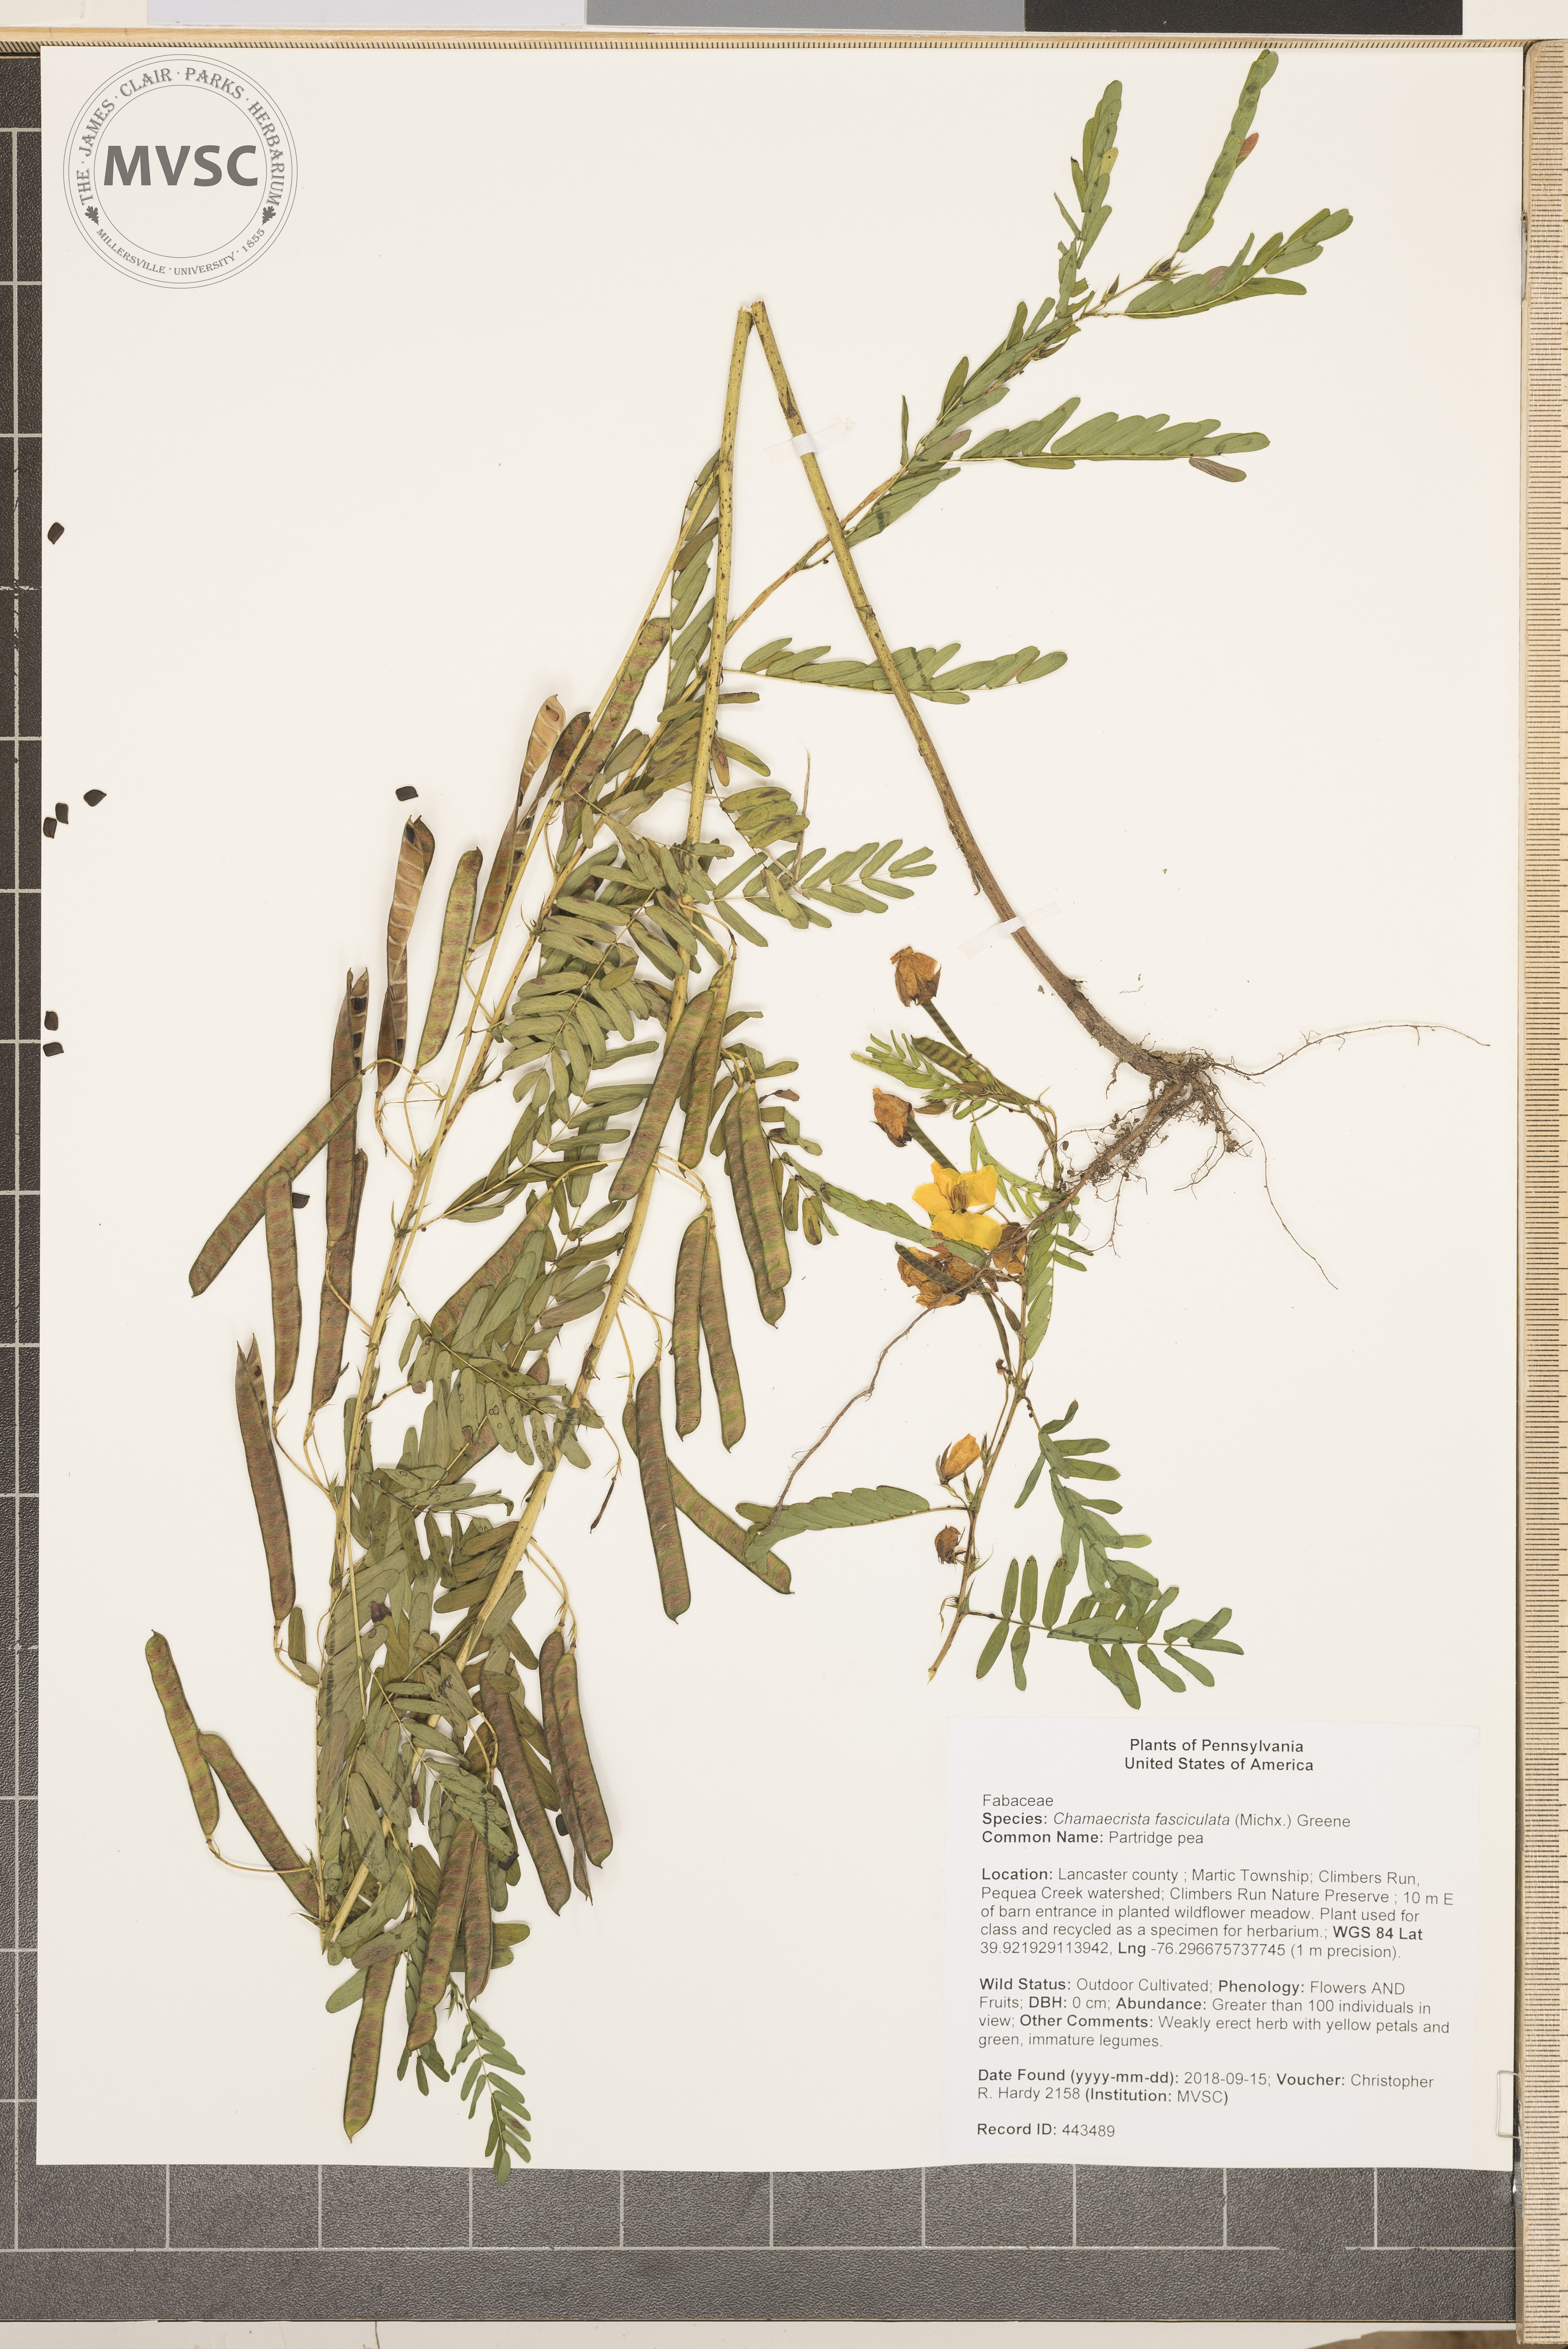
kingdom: Plantae
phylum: Tracheophyta
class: Magnoliopsida
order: Fabales
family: Fabaceae
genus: Chamaecrista
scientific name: Chamaecrista fasciculata
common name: partridge pea
